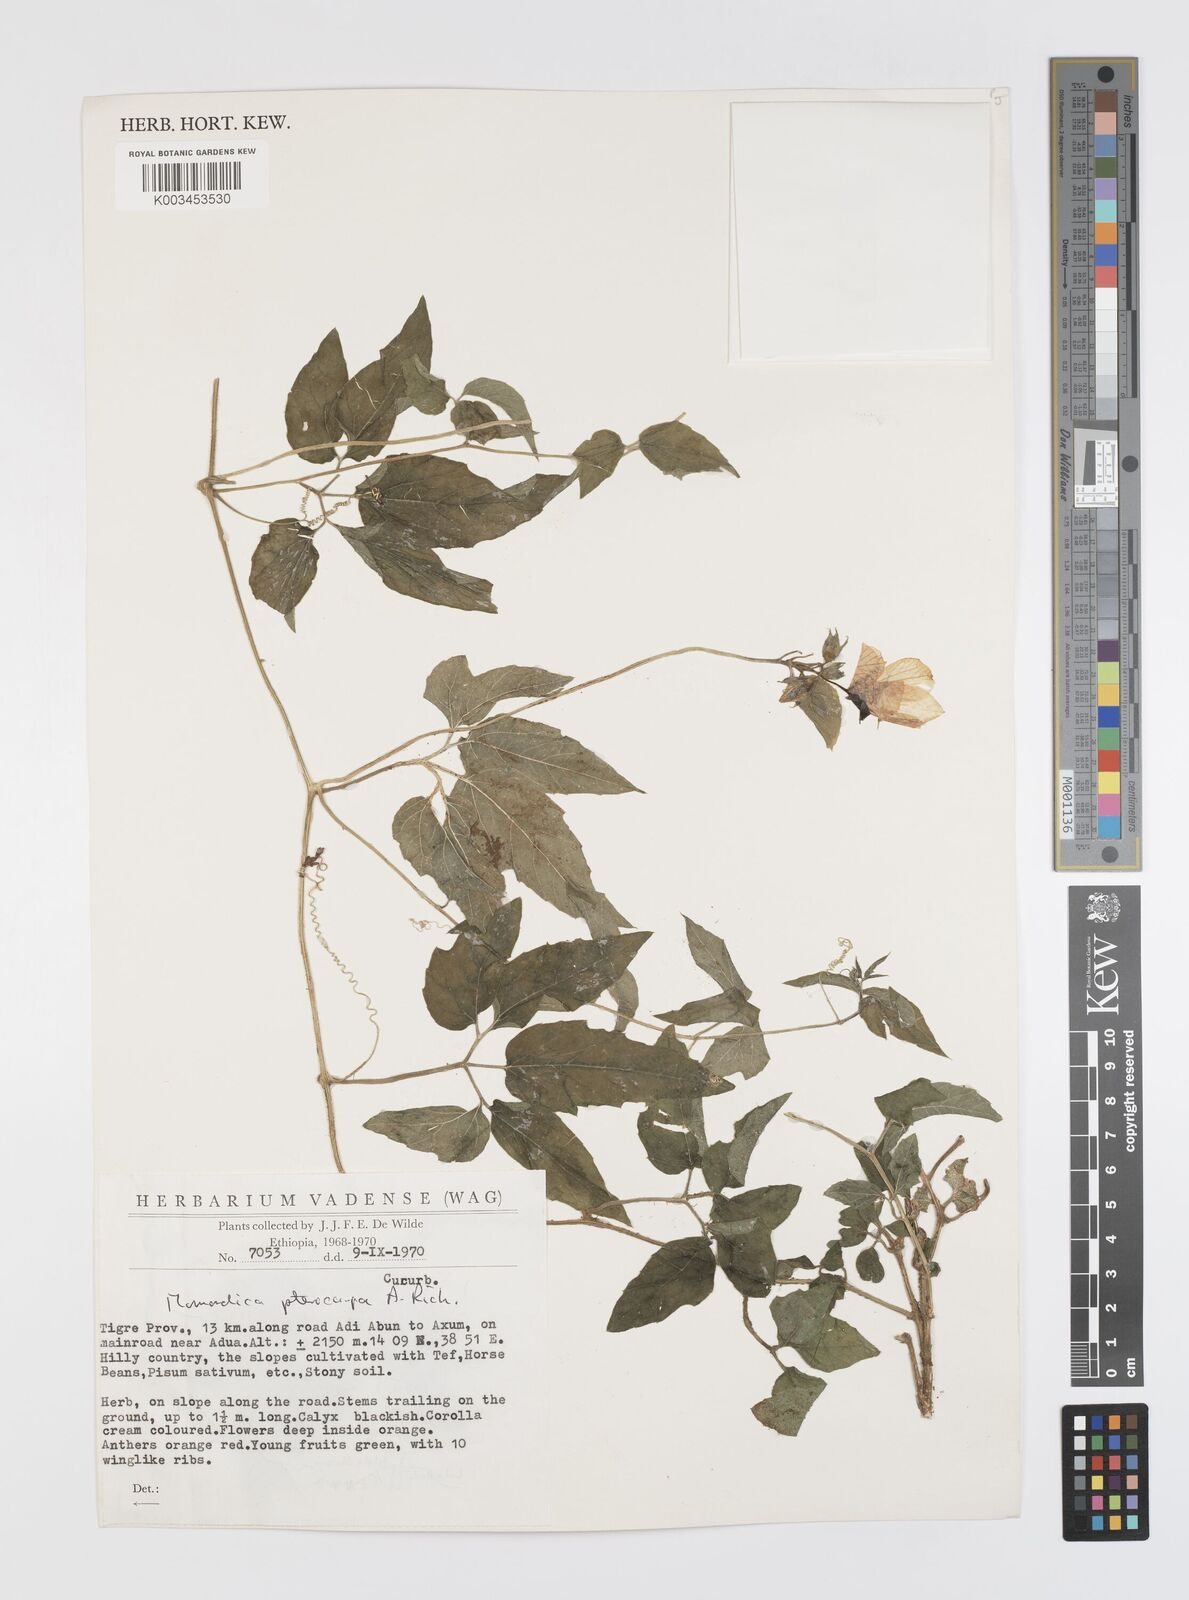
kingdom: Plantae
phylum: Tracheophyta
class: Magnoliopsida
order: Cucurbitales
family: Cucurbitaceae
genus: Momordica
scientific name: Momordica pterocarpa
